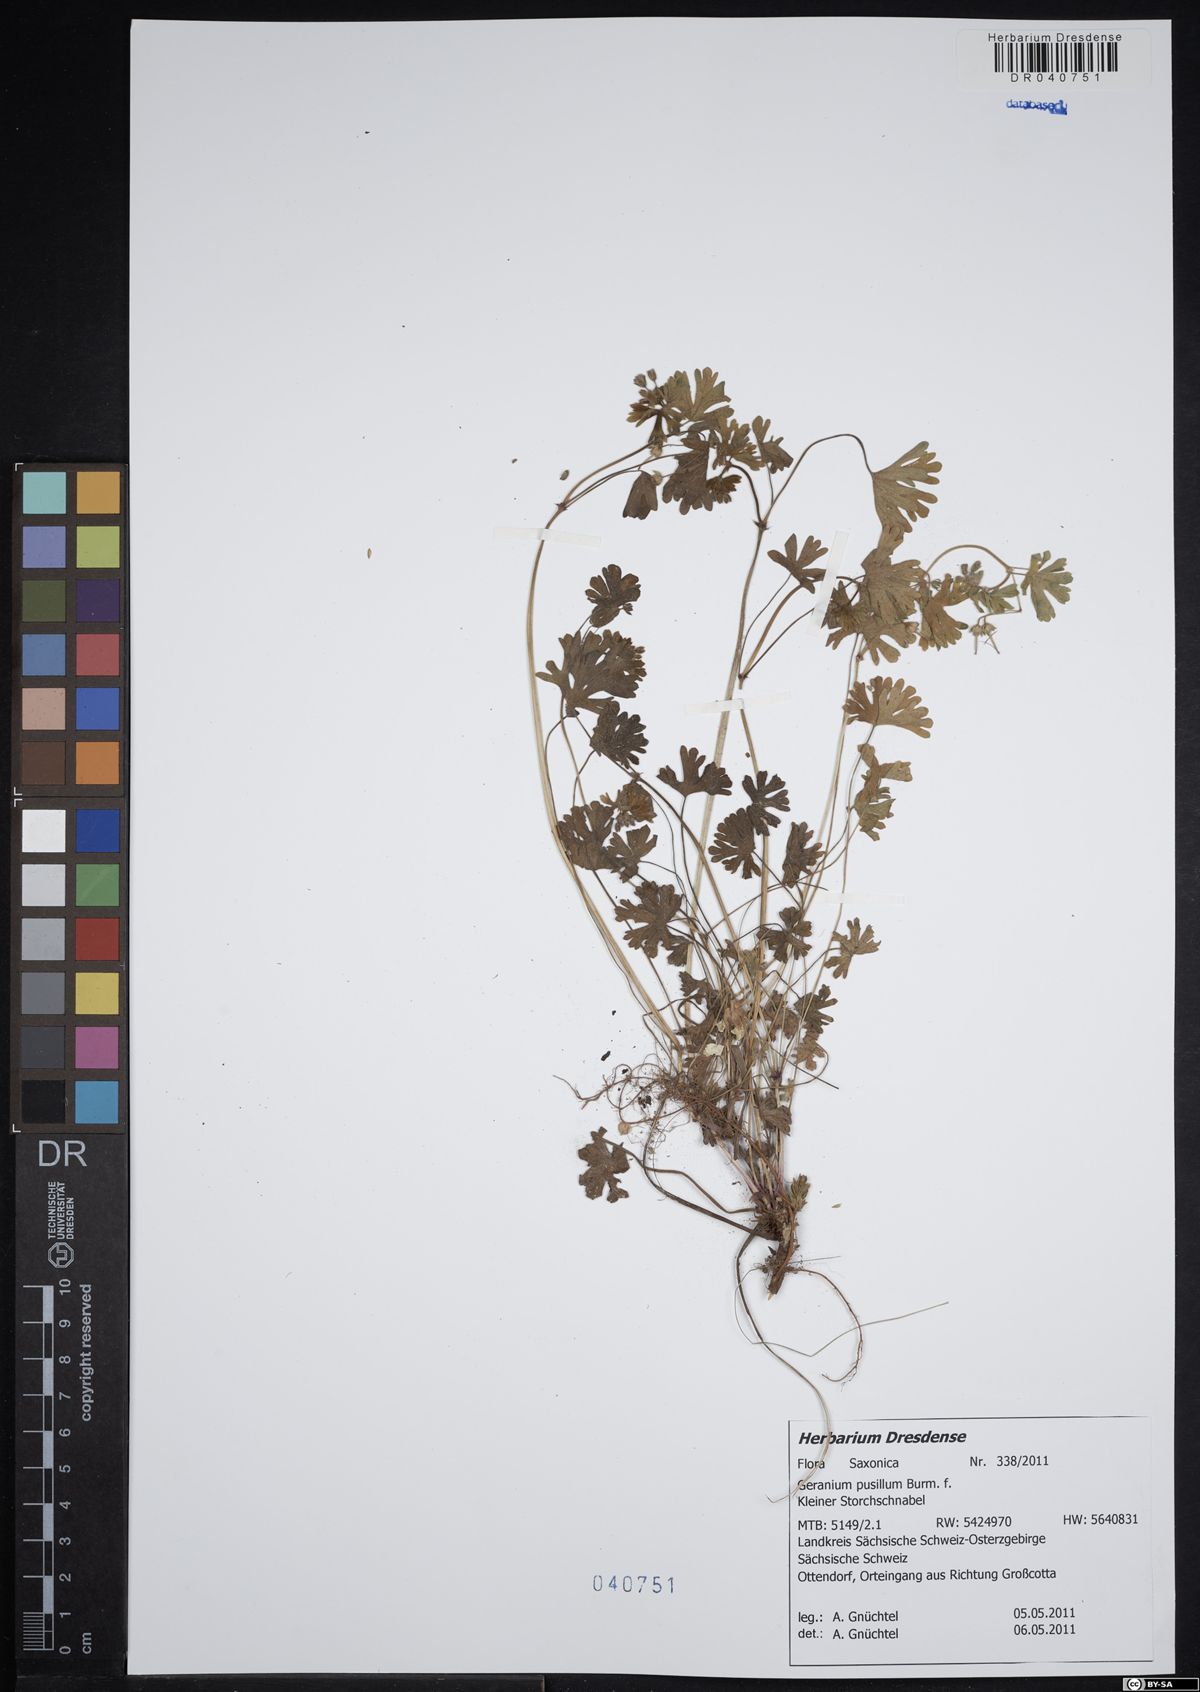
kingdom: Plantae
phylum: Tracheophyta
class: Magnoliopsida
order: Geraniales
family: Geraniaceae
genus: Geranium
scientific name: Geranium pusillum
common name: Small geranium
